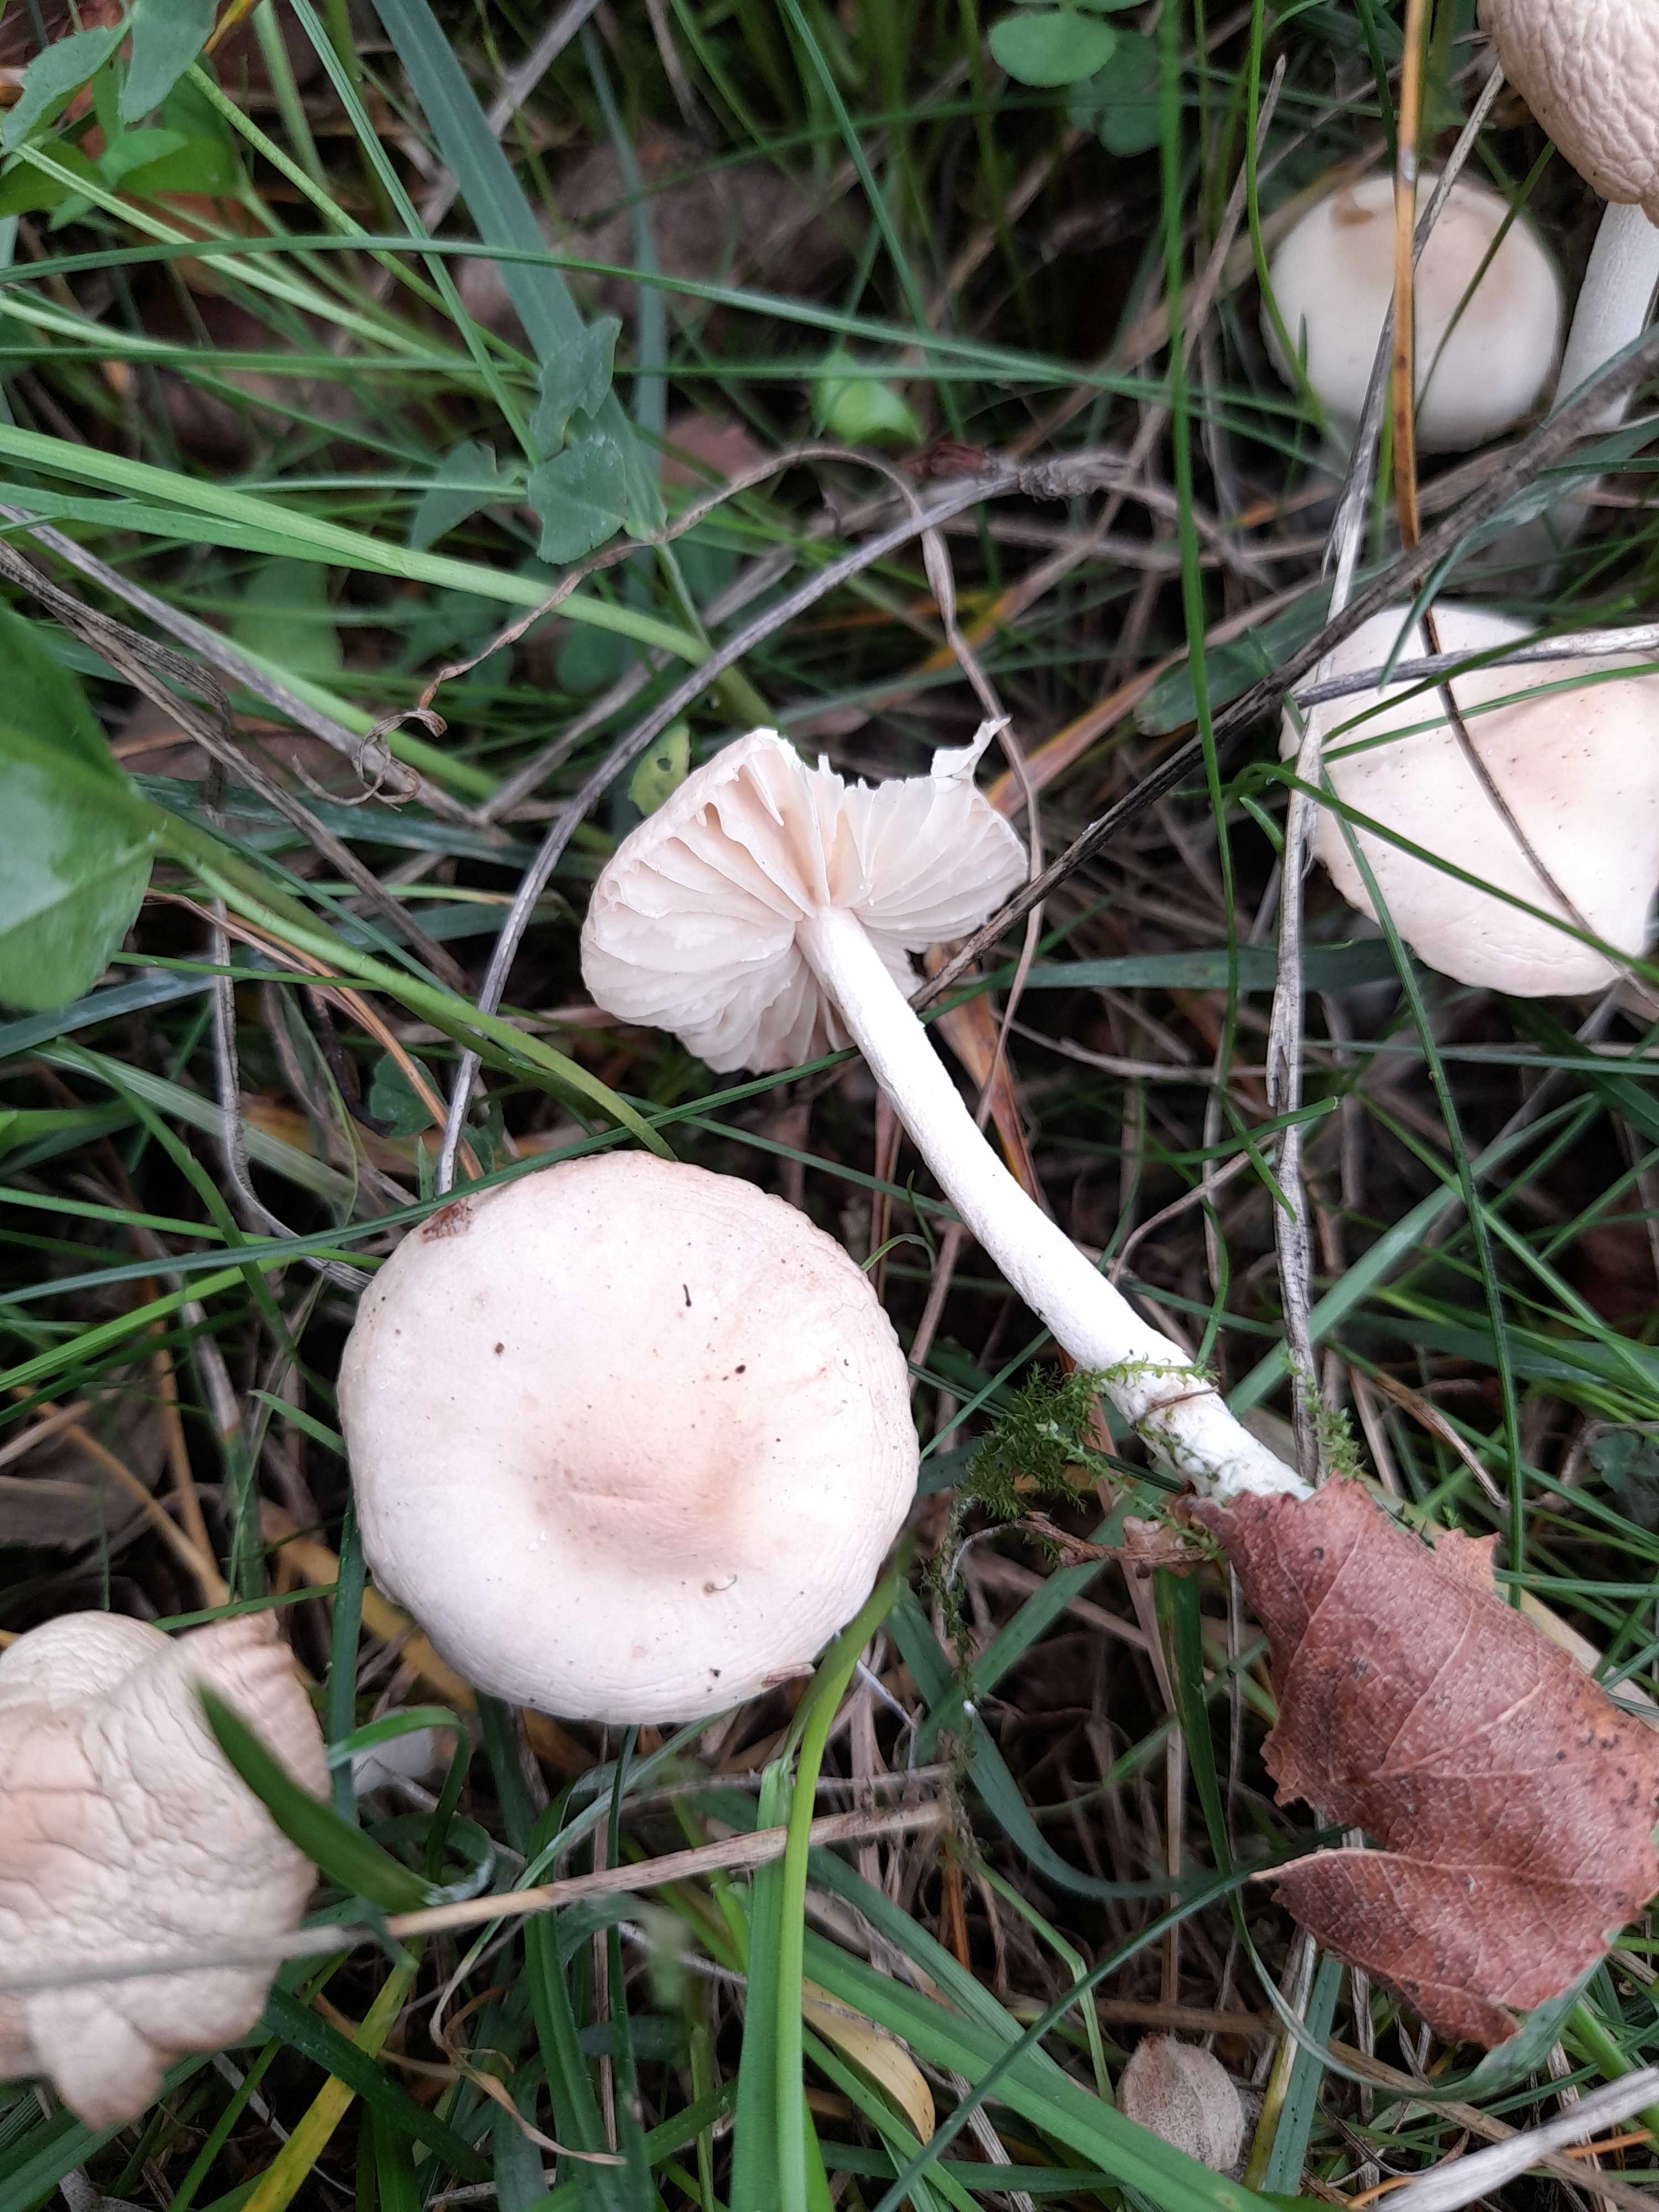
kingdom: Fungi
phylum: Basidiomycota
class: Agaricomycetes
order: Agaricales
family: Marasmiaceae
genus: Marasmius
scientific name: Marasmius oreades
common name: elledans-bruskhat
